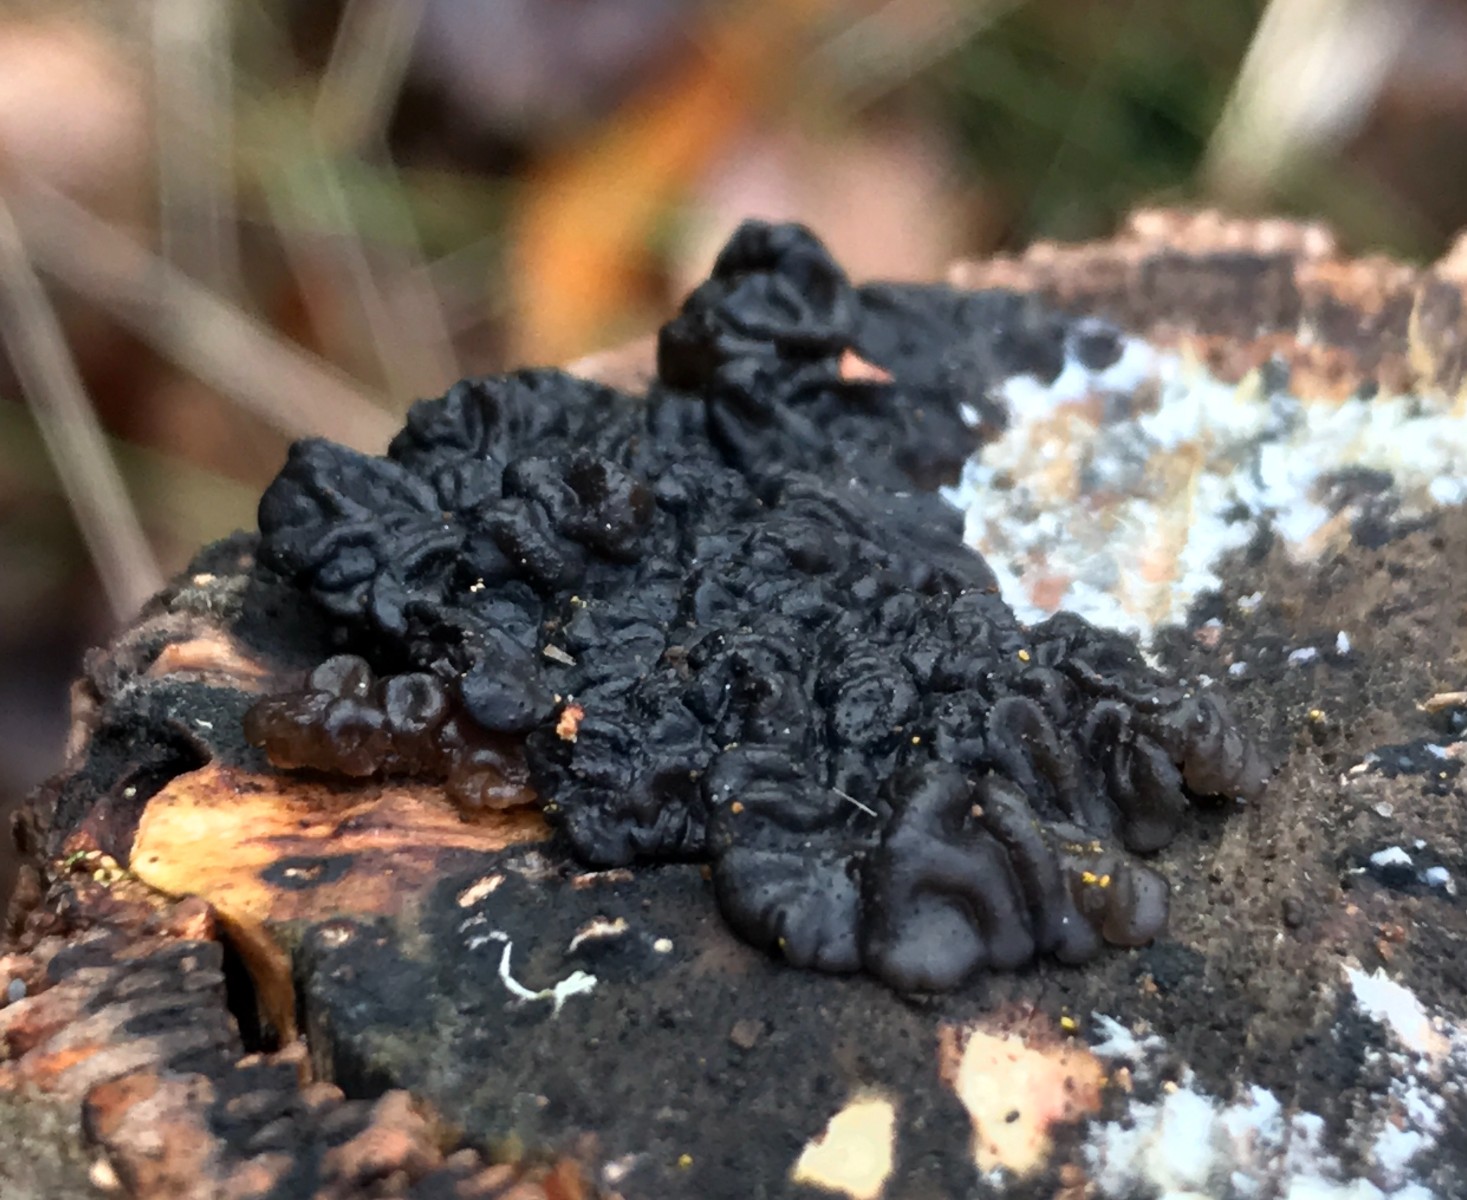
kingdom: Fungi
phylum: Basidiomycota
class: Agaricomycetes
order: Auriculariales
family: Auriculariaceae
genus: Exidia
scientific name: Exidia nigricans
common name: almindelig bævretop
